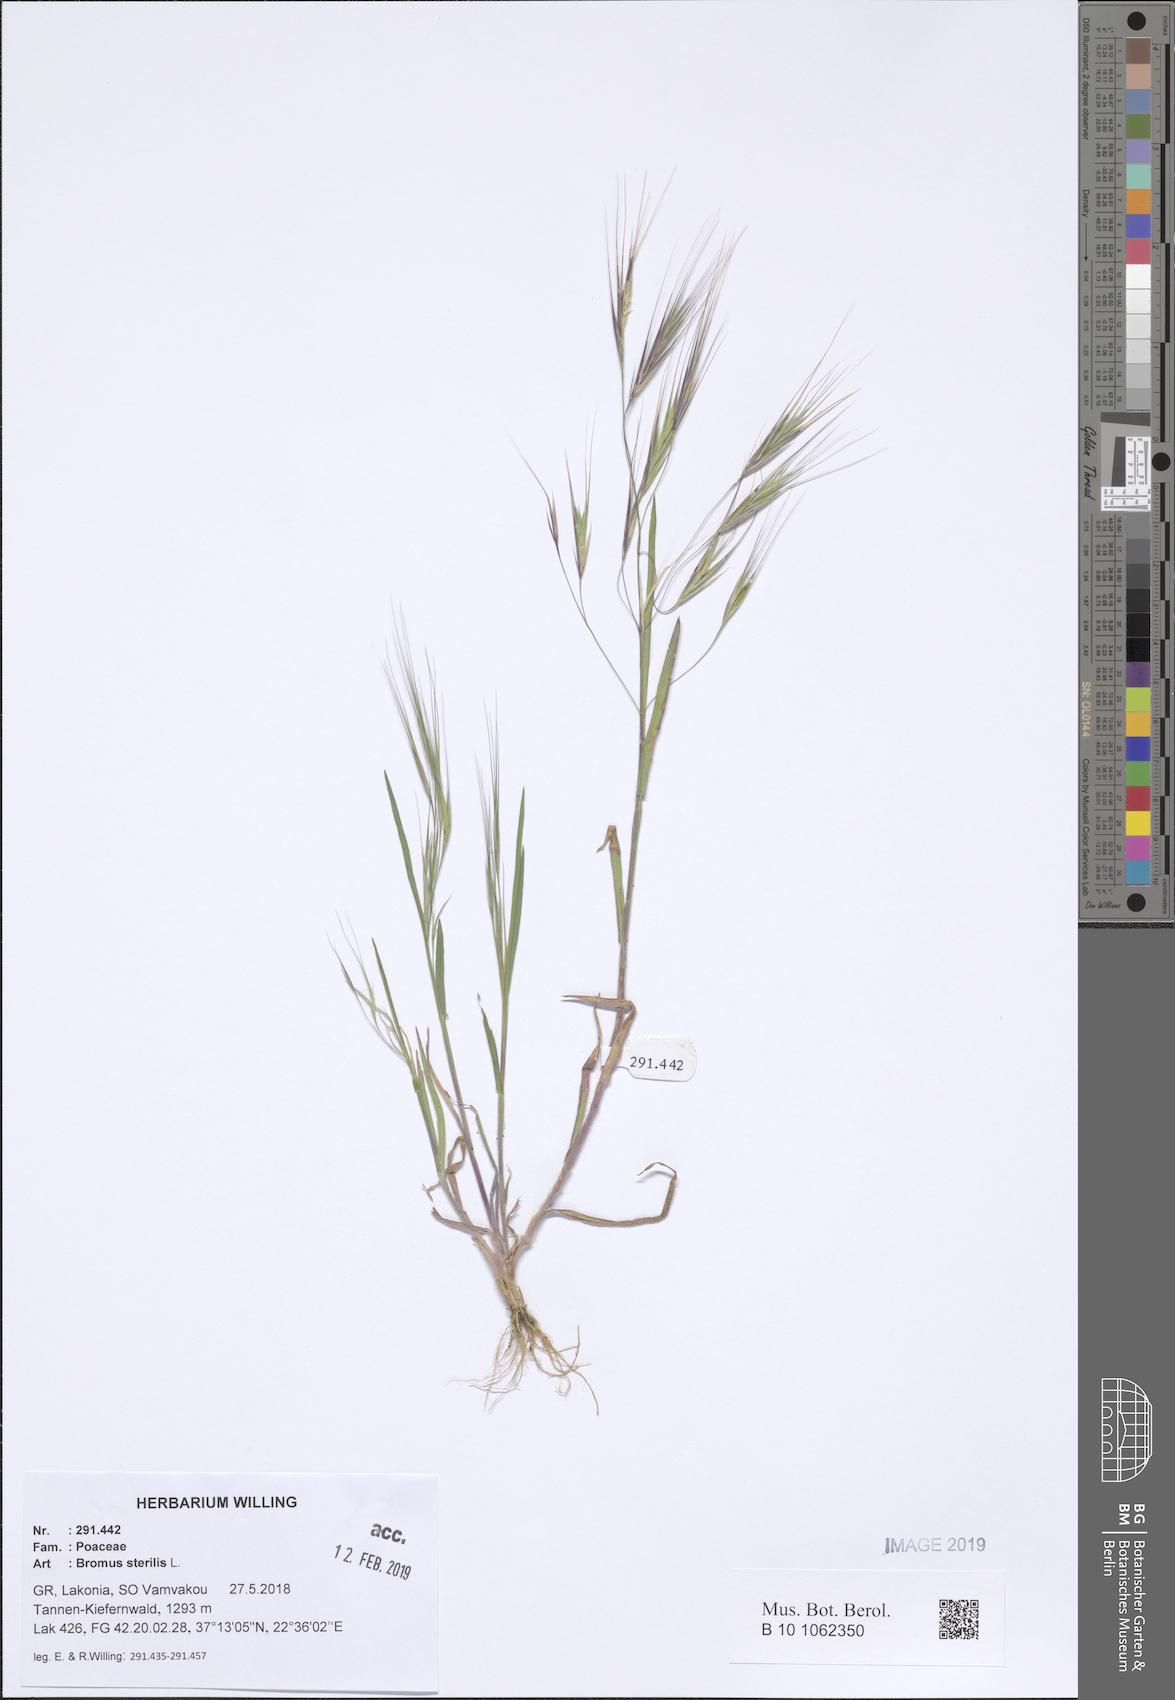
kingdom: Plantae
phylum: Tracheophyta
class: Liliopsida
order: Poales
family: Poaceae
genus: Bromus
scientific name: Bromus sterilis
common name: Poverty brome
